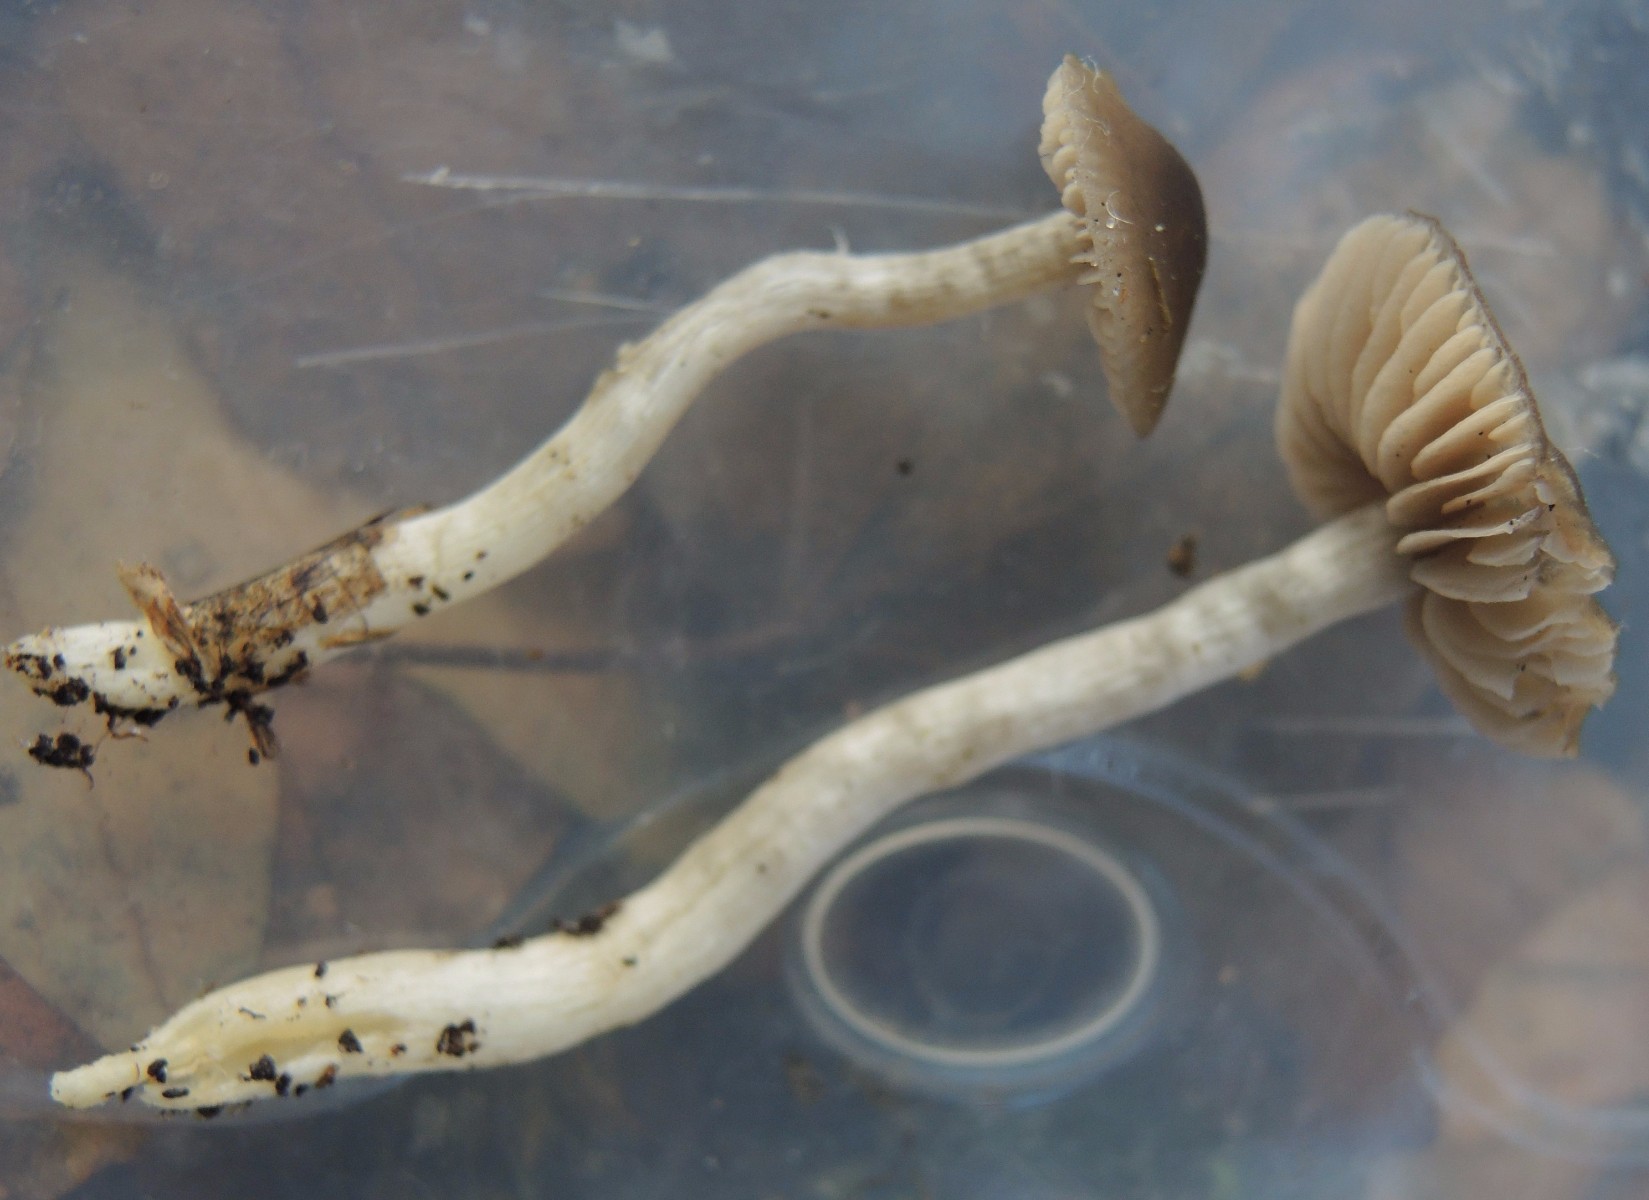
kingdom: Fungi
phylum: Basidiomycota
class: Agaricomycetes
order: Agaricales
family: Entolomataceae
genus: Entocybe
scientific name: Entocybe turbida
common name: plantage-rødblad
